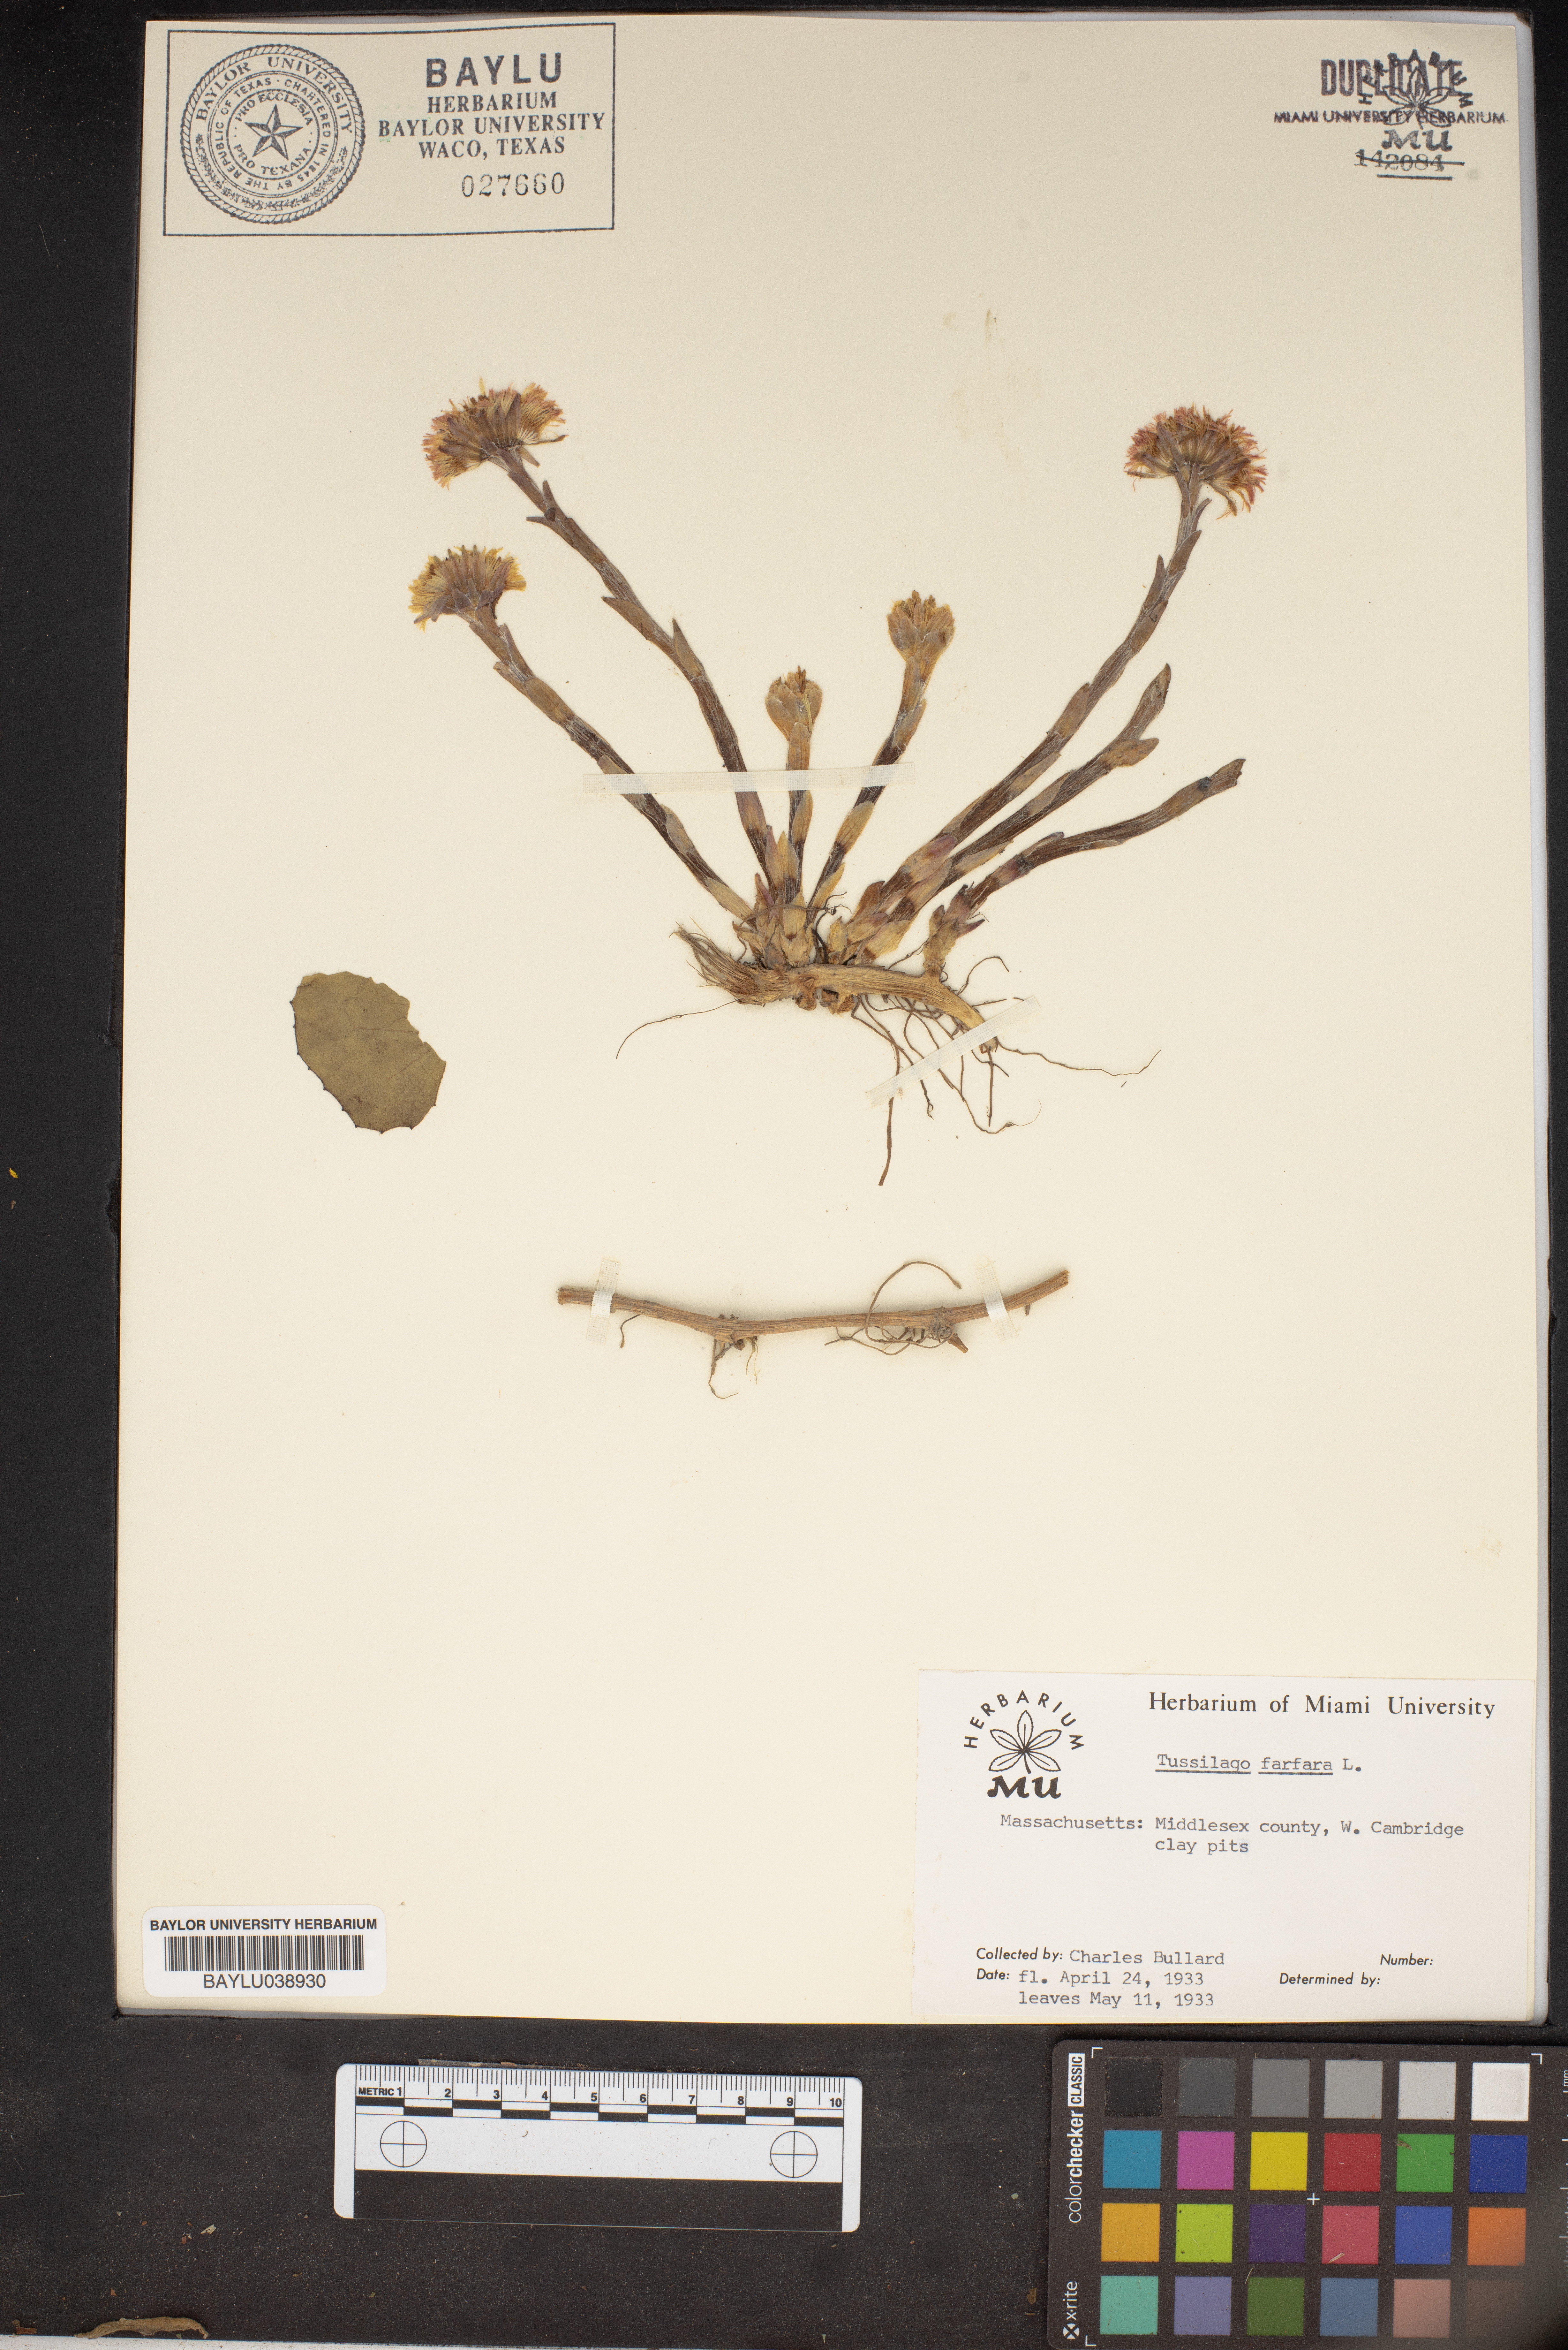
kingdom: Plantae
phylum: Tracheophyta
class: Magnoliopsida
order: Asterales
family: Asteraceae
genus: Tussilago
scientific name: Tussilago farfara
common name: Coltsfoot
